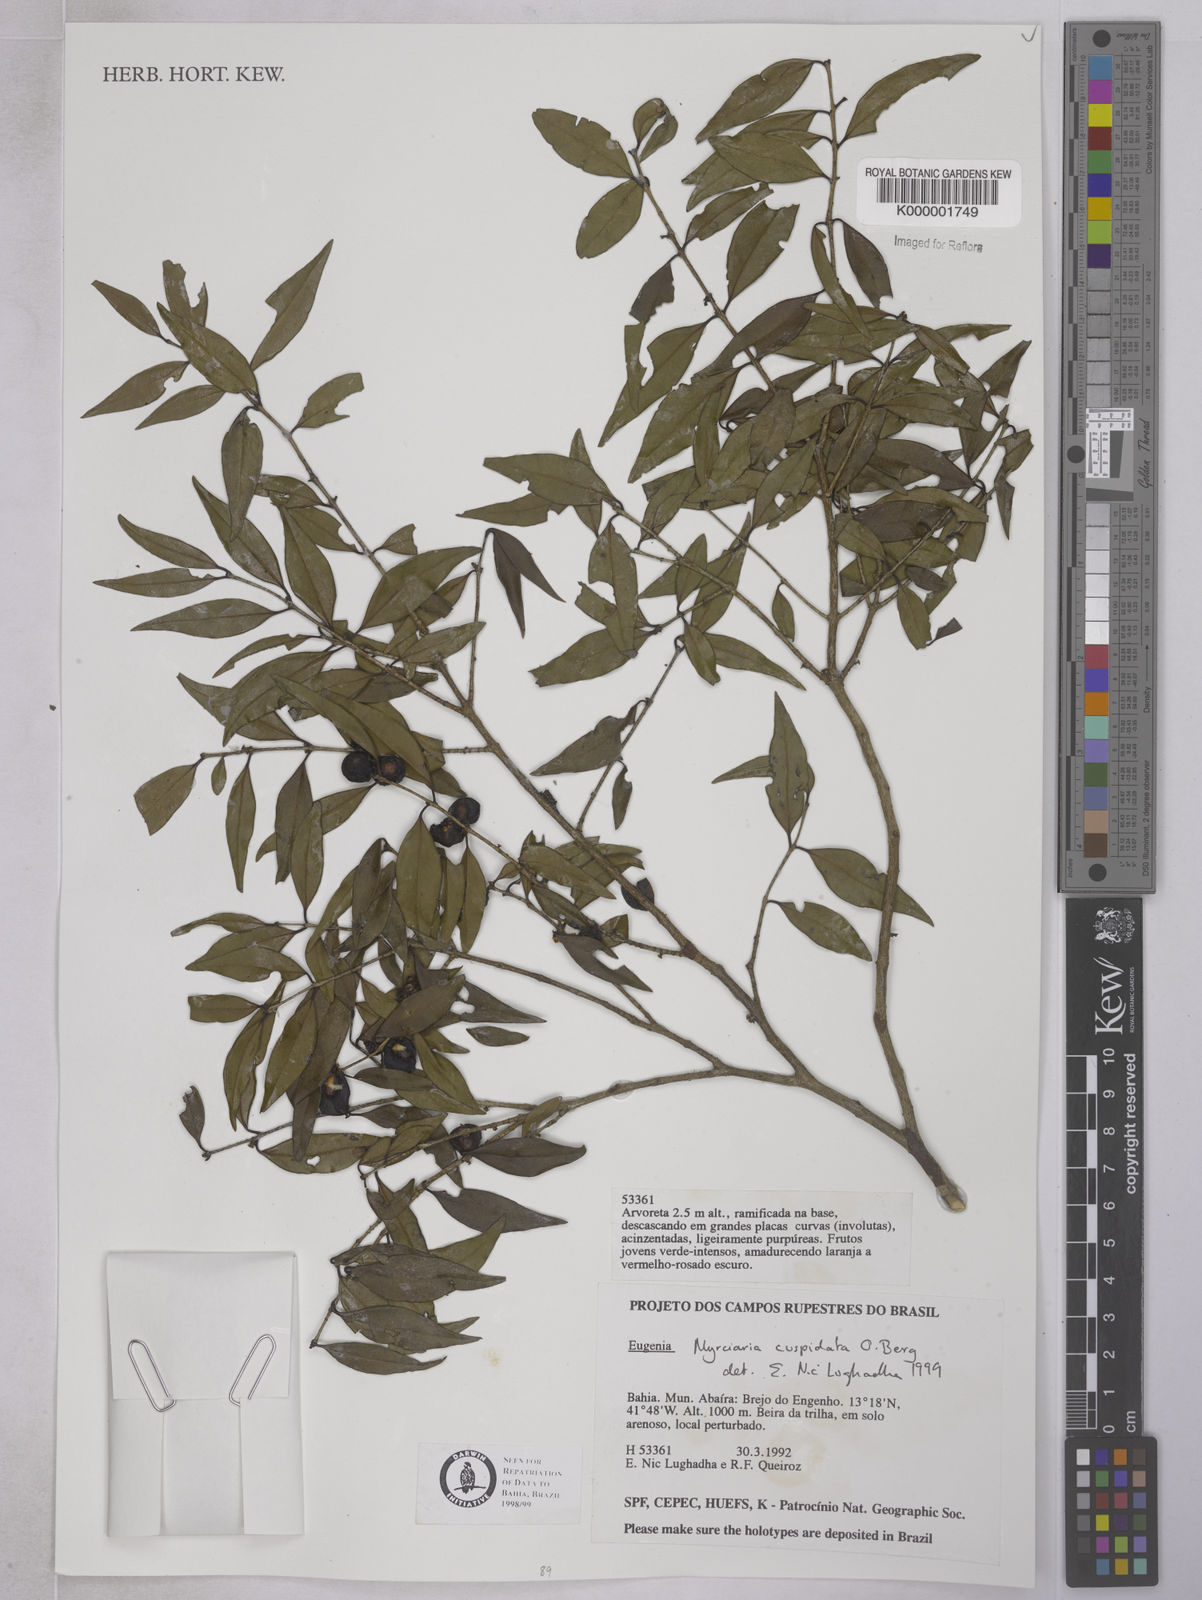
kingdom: Plantae
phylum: Tracheophyta
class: Magnoliopsida
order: Myrtales
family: Myrtaceae
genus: Myrciaria
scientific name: Myrciaria cuspidata
